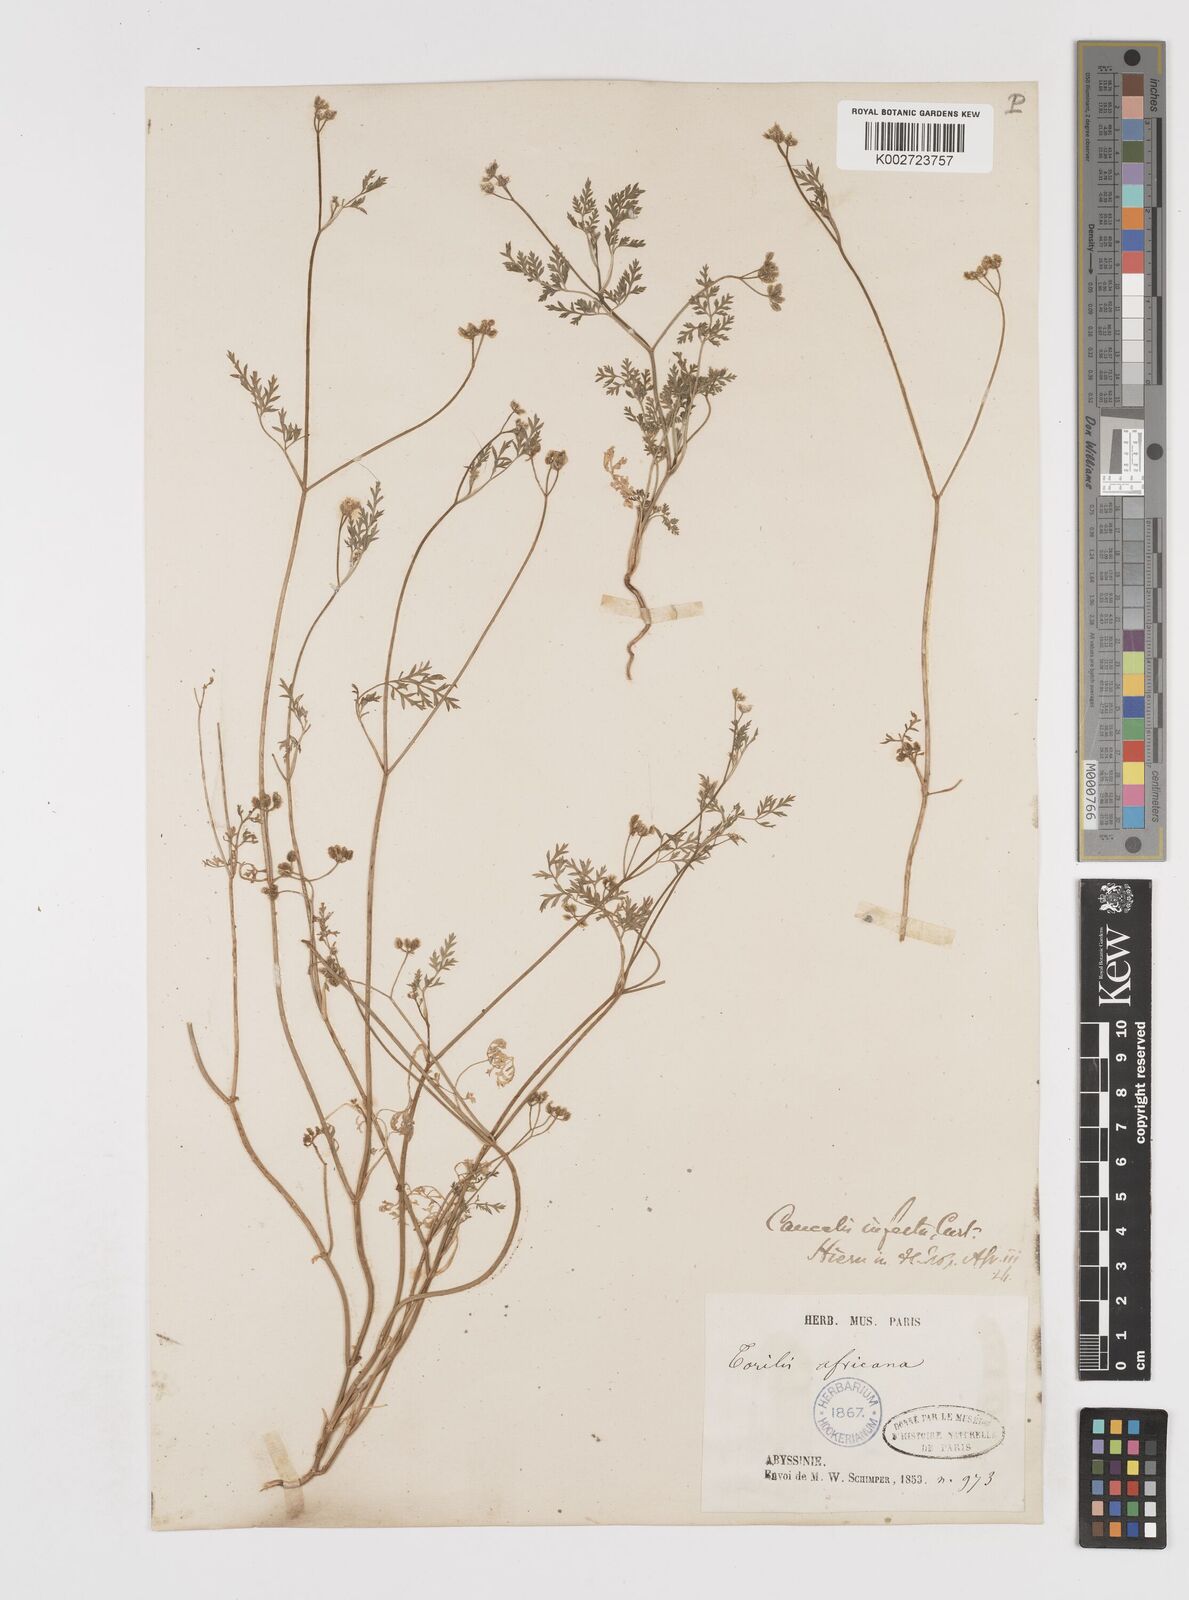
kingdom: Plantae
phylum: Tracheophyta
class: Magnoliopsida
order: Apiales
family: Apiaceae
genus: Torilis
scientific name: Torilis arvensis
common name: Spreading hedge-parsley
